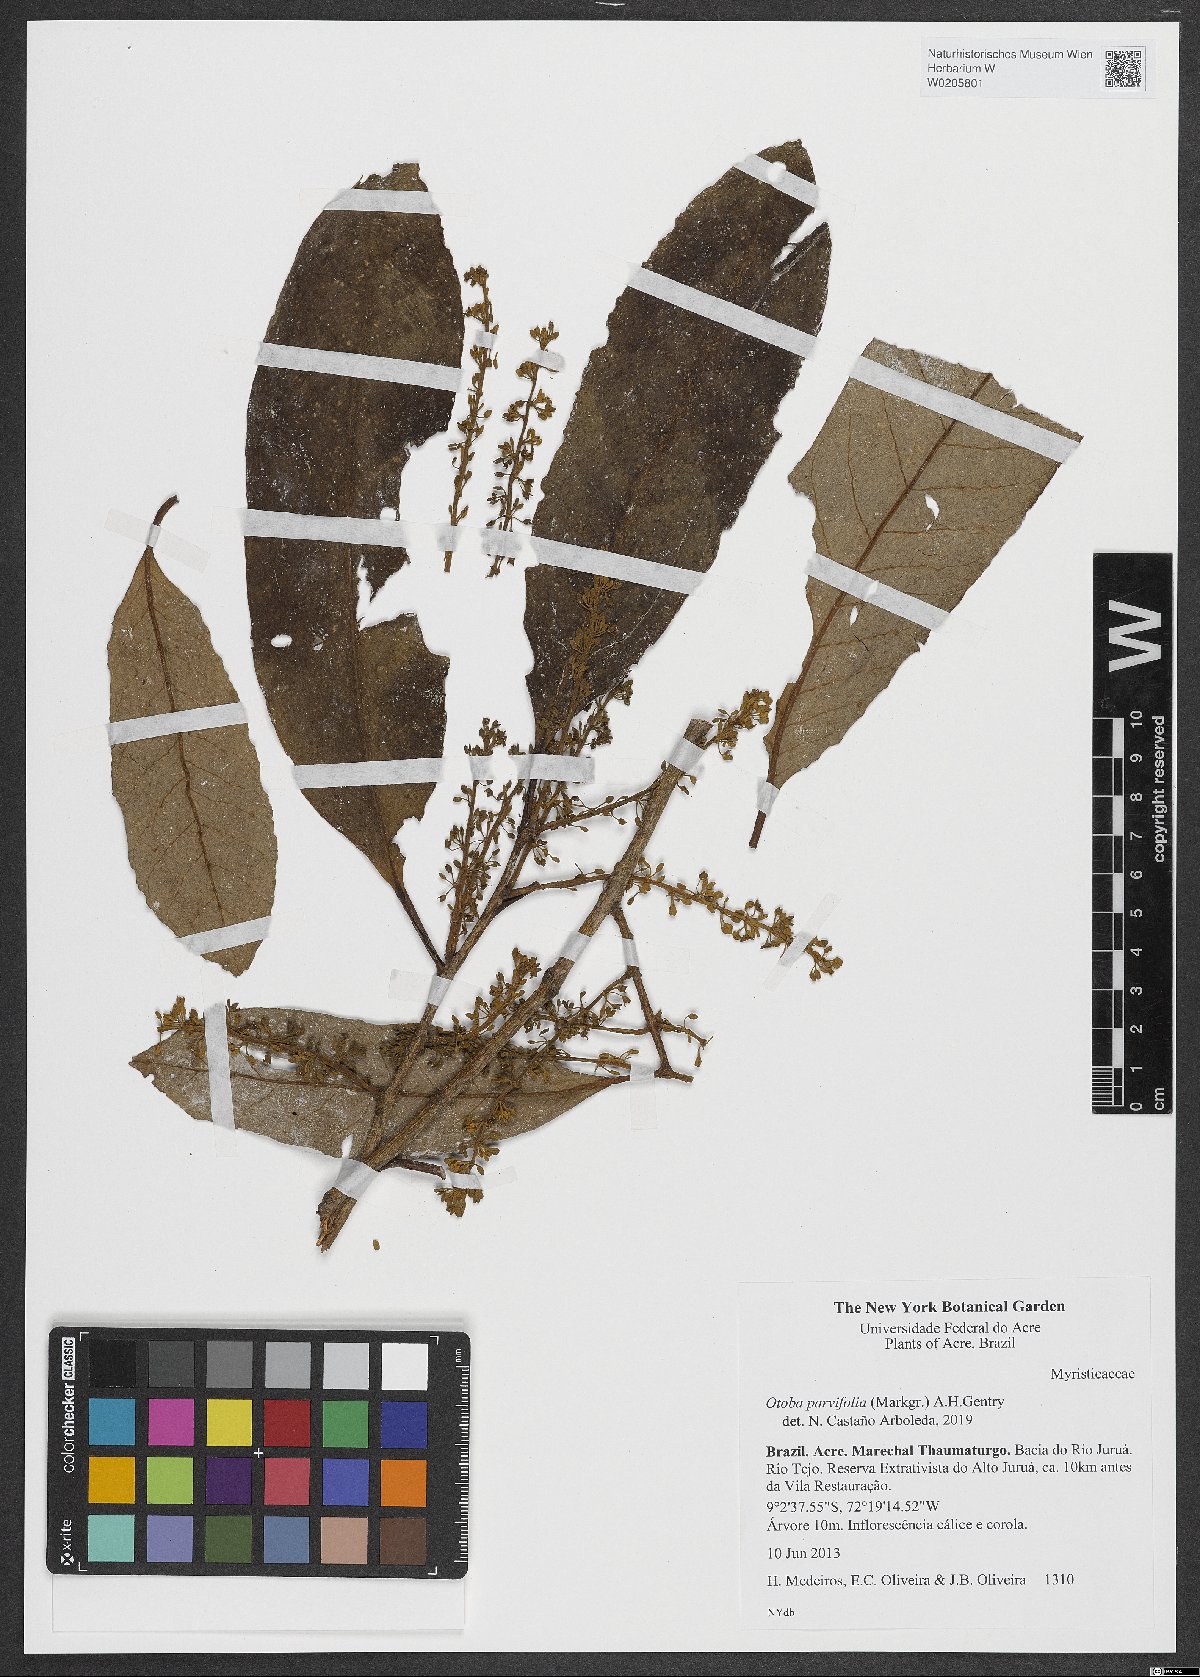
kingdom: Plantae
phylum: Tracheophyta
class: Magnoliopsida
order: Magnoliales
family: Myristicaceae
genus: Otoba
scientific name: Otoba parvifolia
